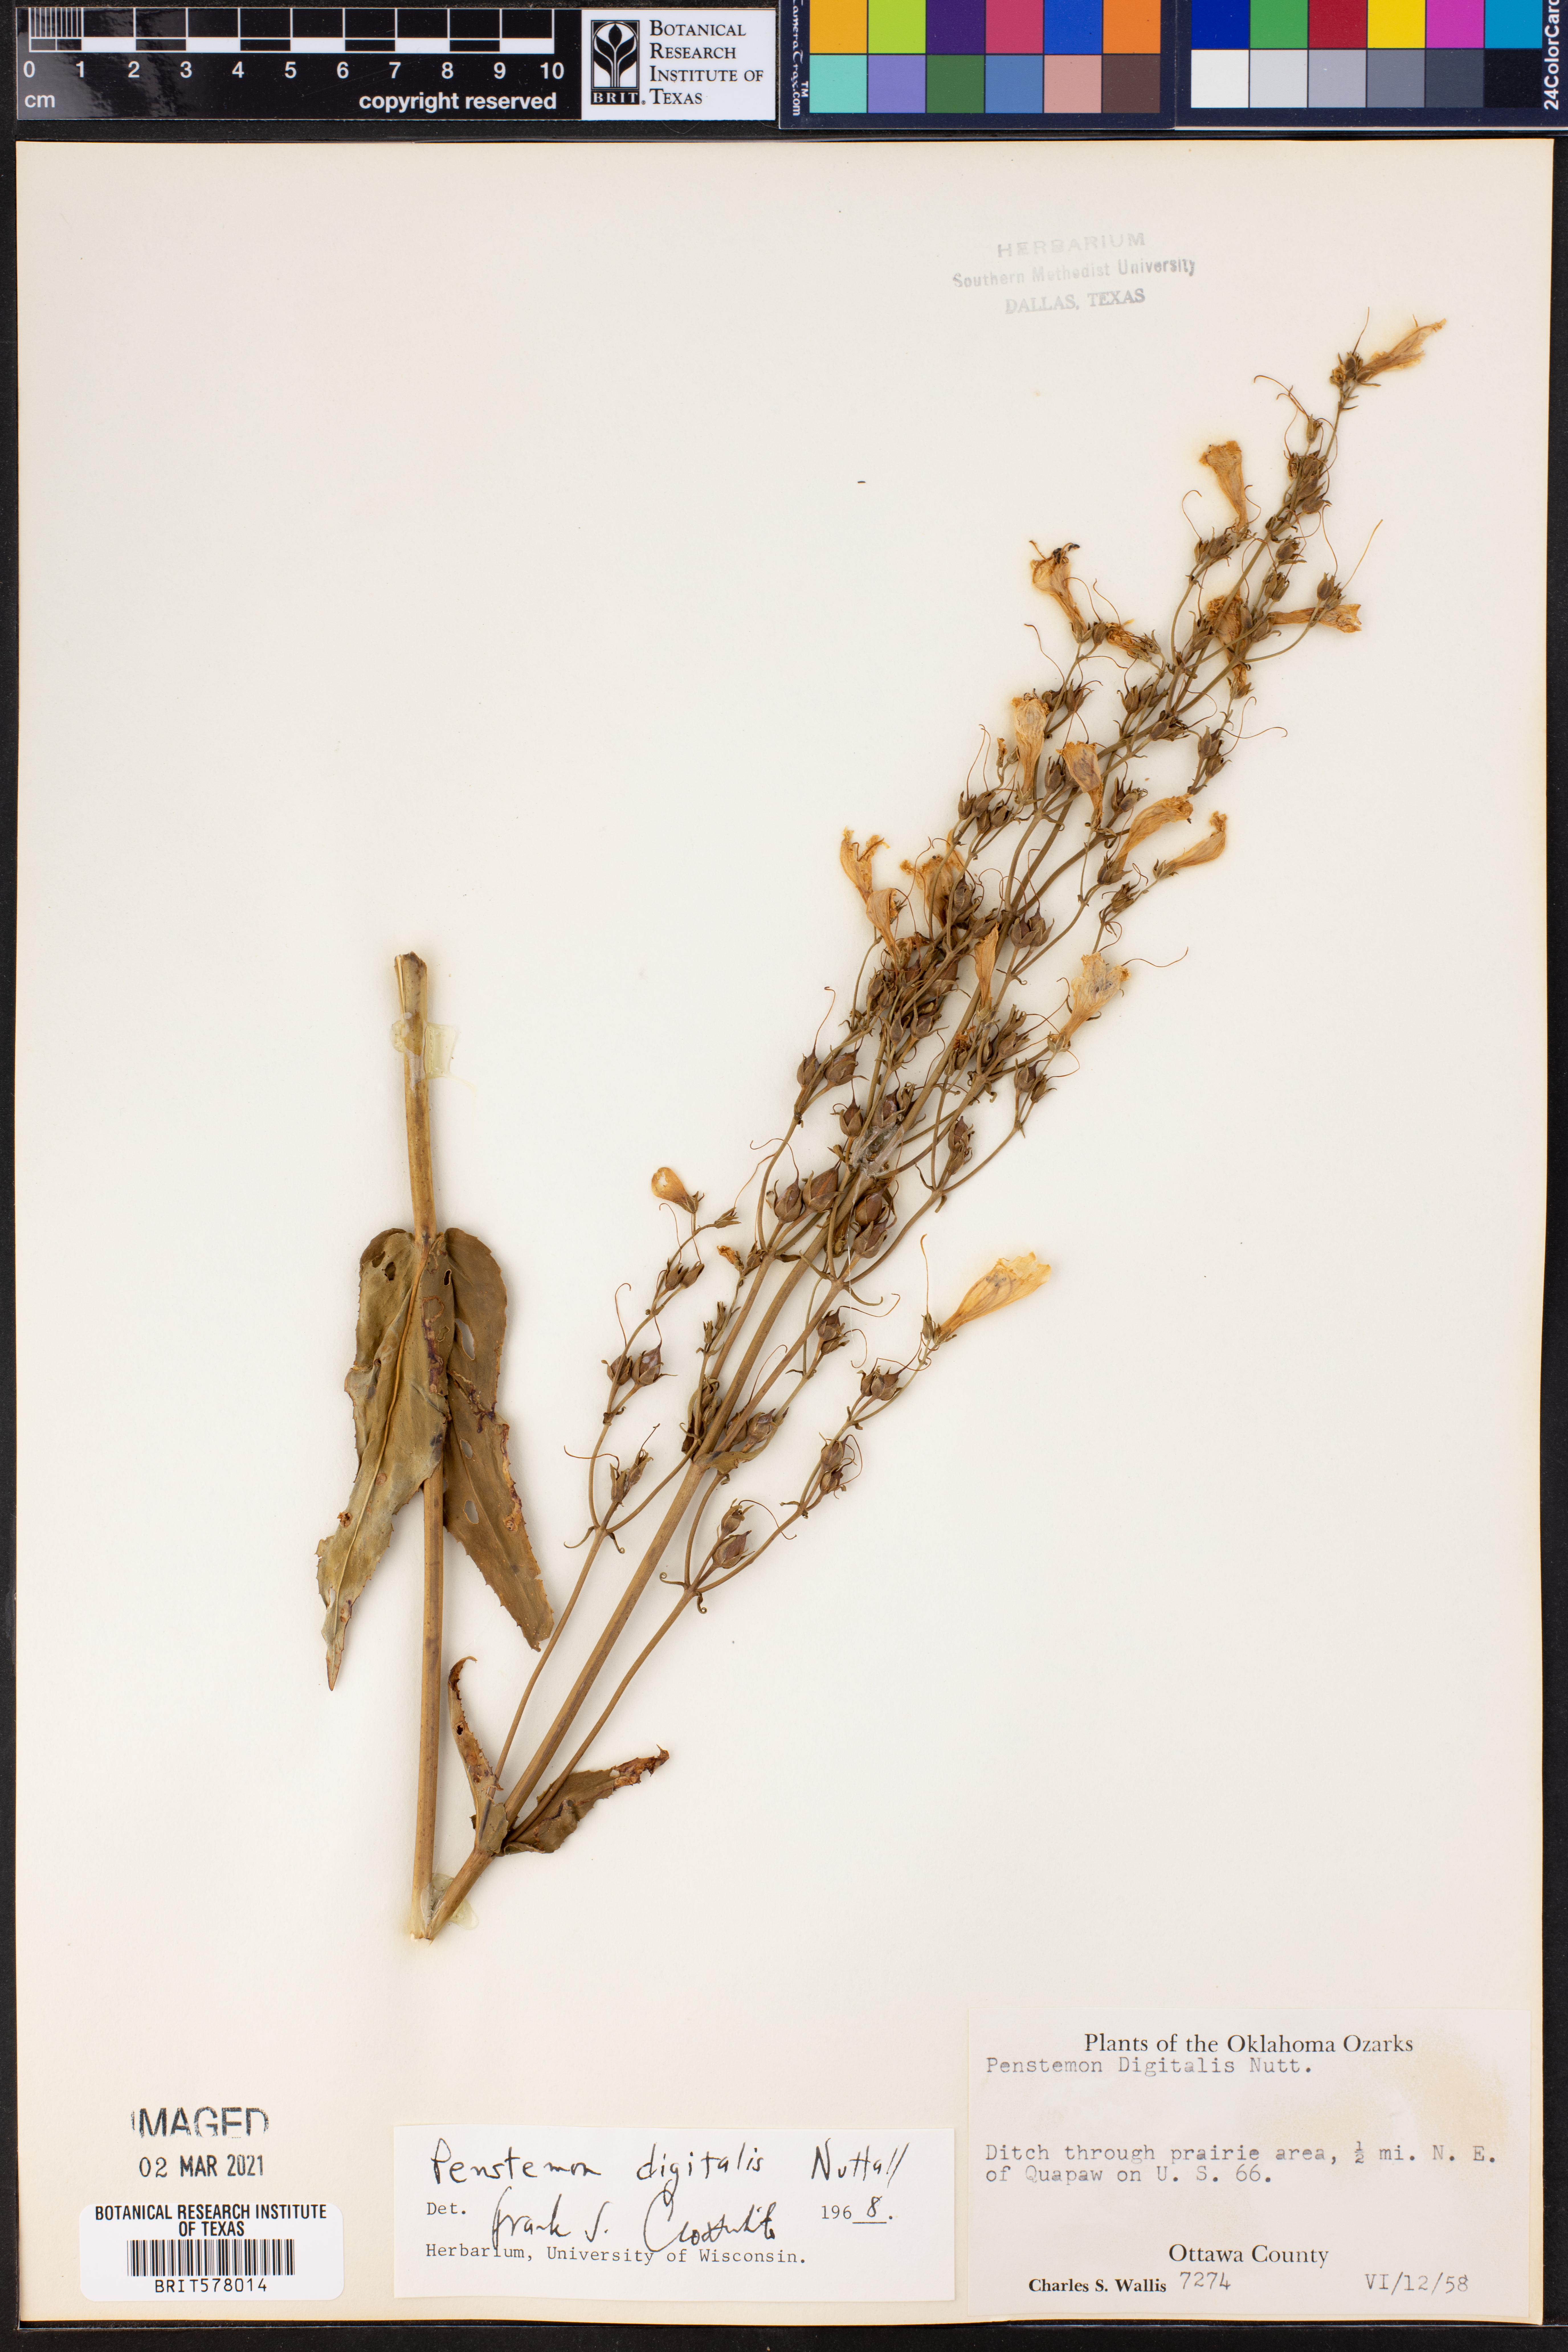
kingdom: Plantae
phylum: Tracheophyta
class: Magnoliopsida
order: Lamiales
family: Plantaginaceae
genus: Penstemon
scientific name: Penstemon digitalis
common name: Foxglove beardtongue
